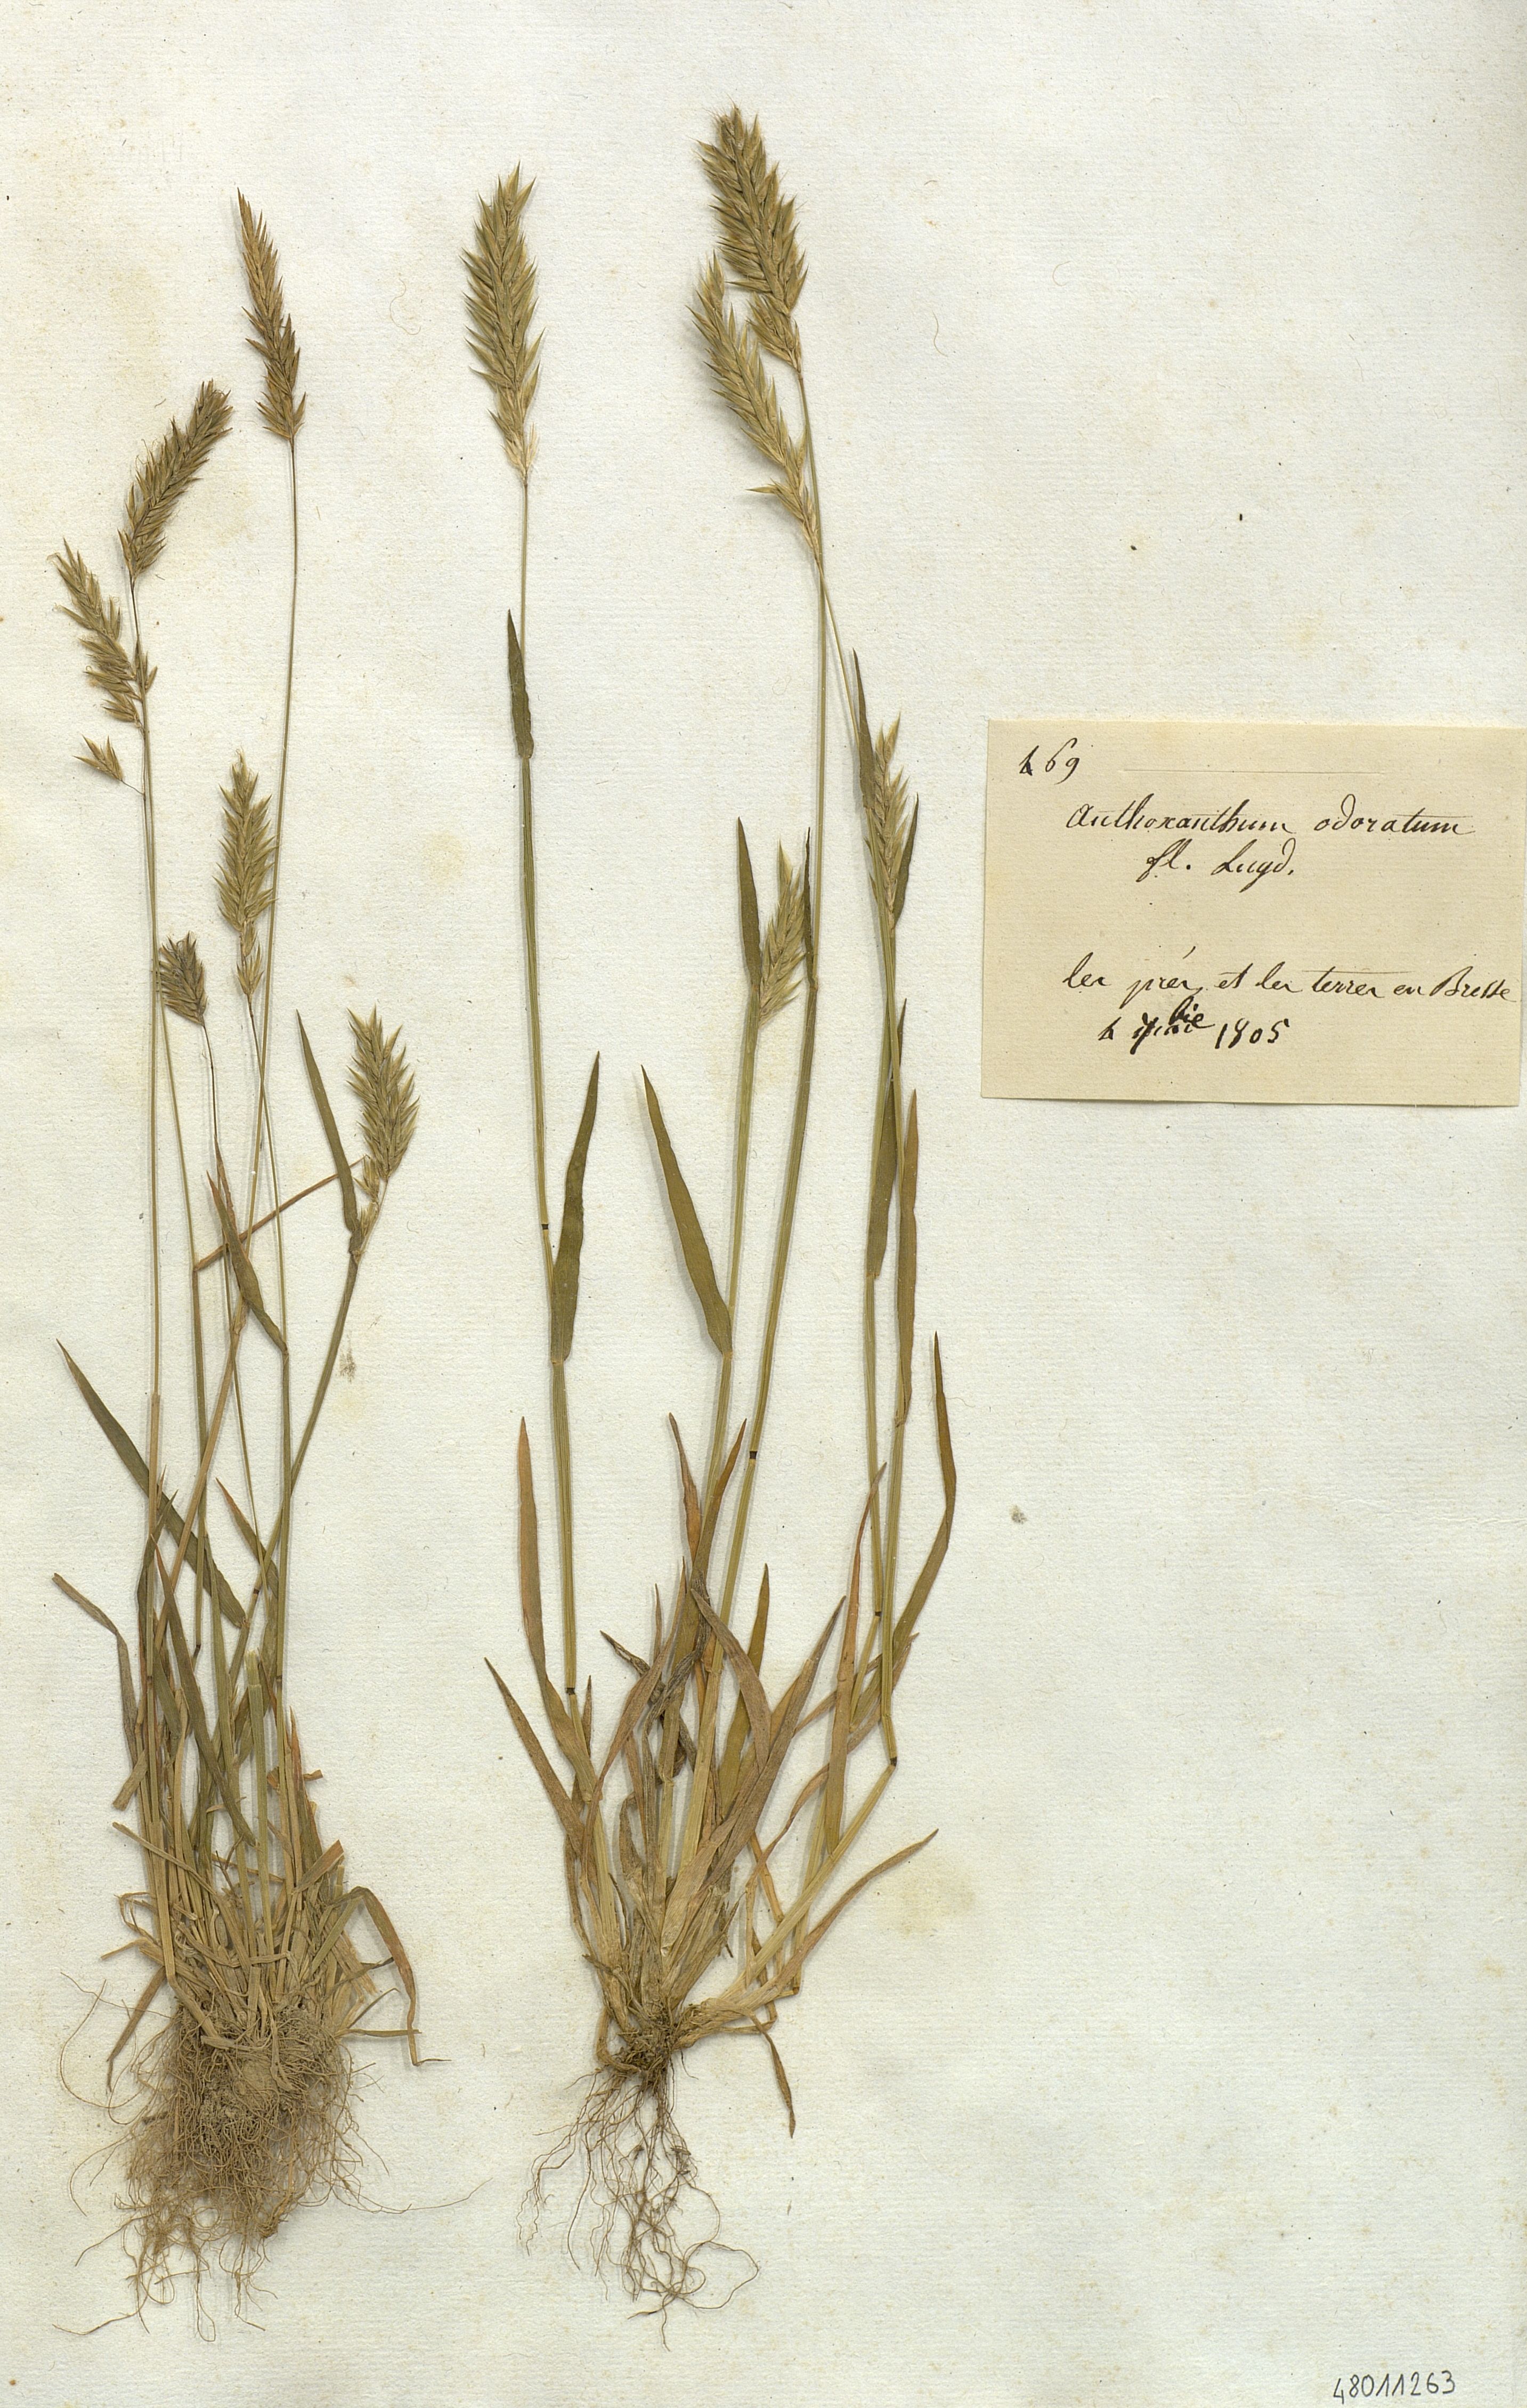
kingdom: Plantae
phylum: Tracheophyta
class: Liliopsida
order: Poales
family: Poaceae
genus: Anthoxanthum
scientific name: Anthoxanthum odoratum
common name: Sweet vernalgrass
